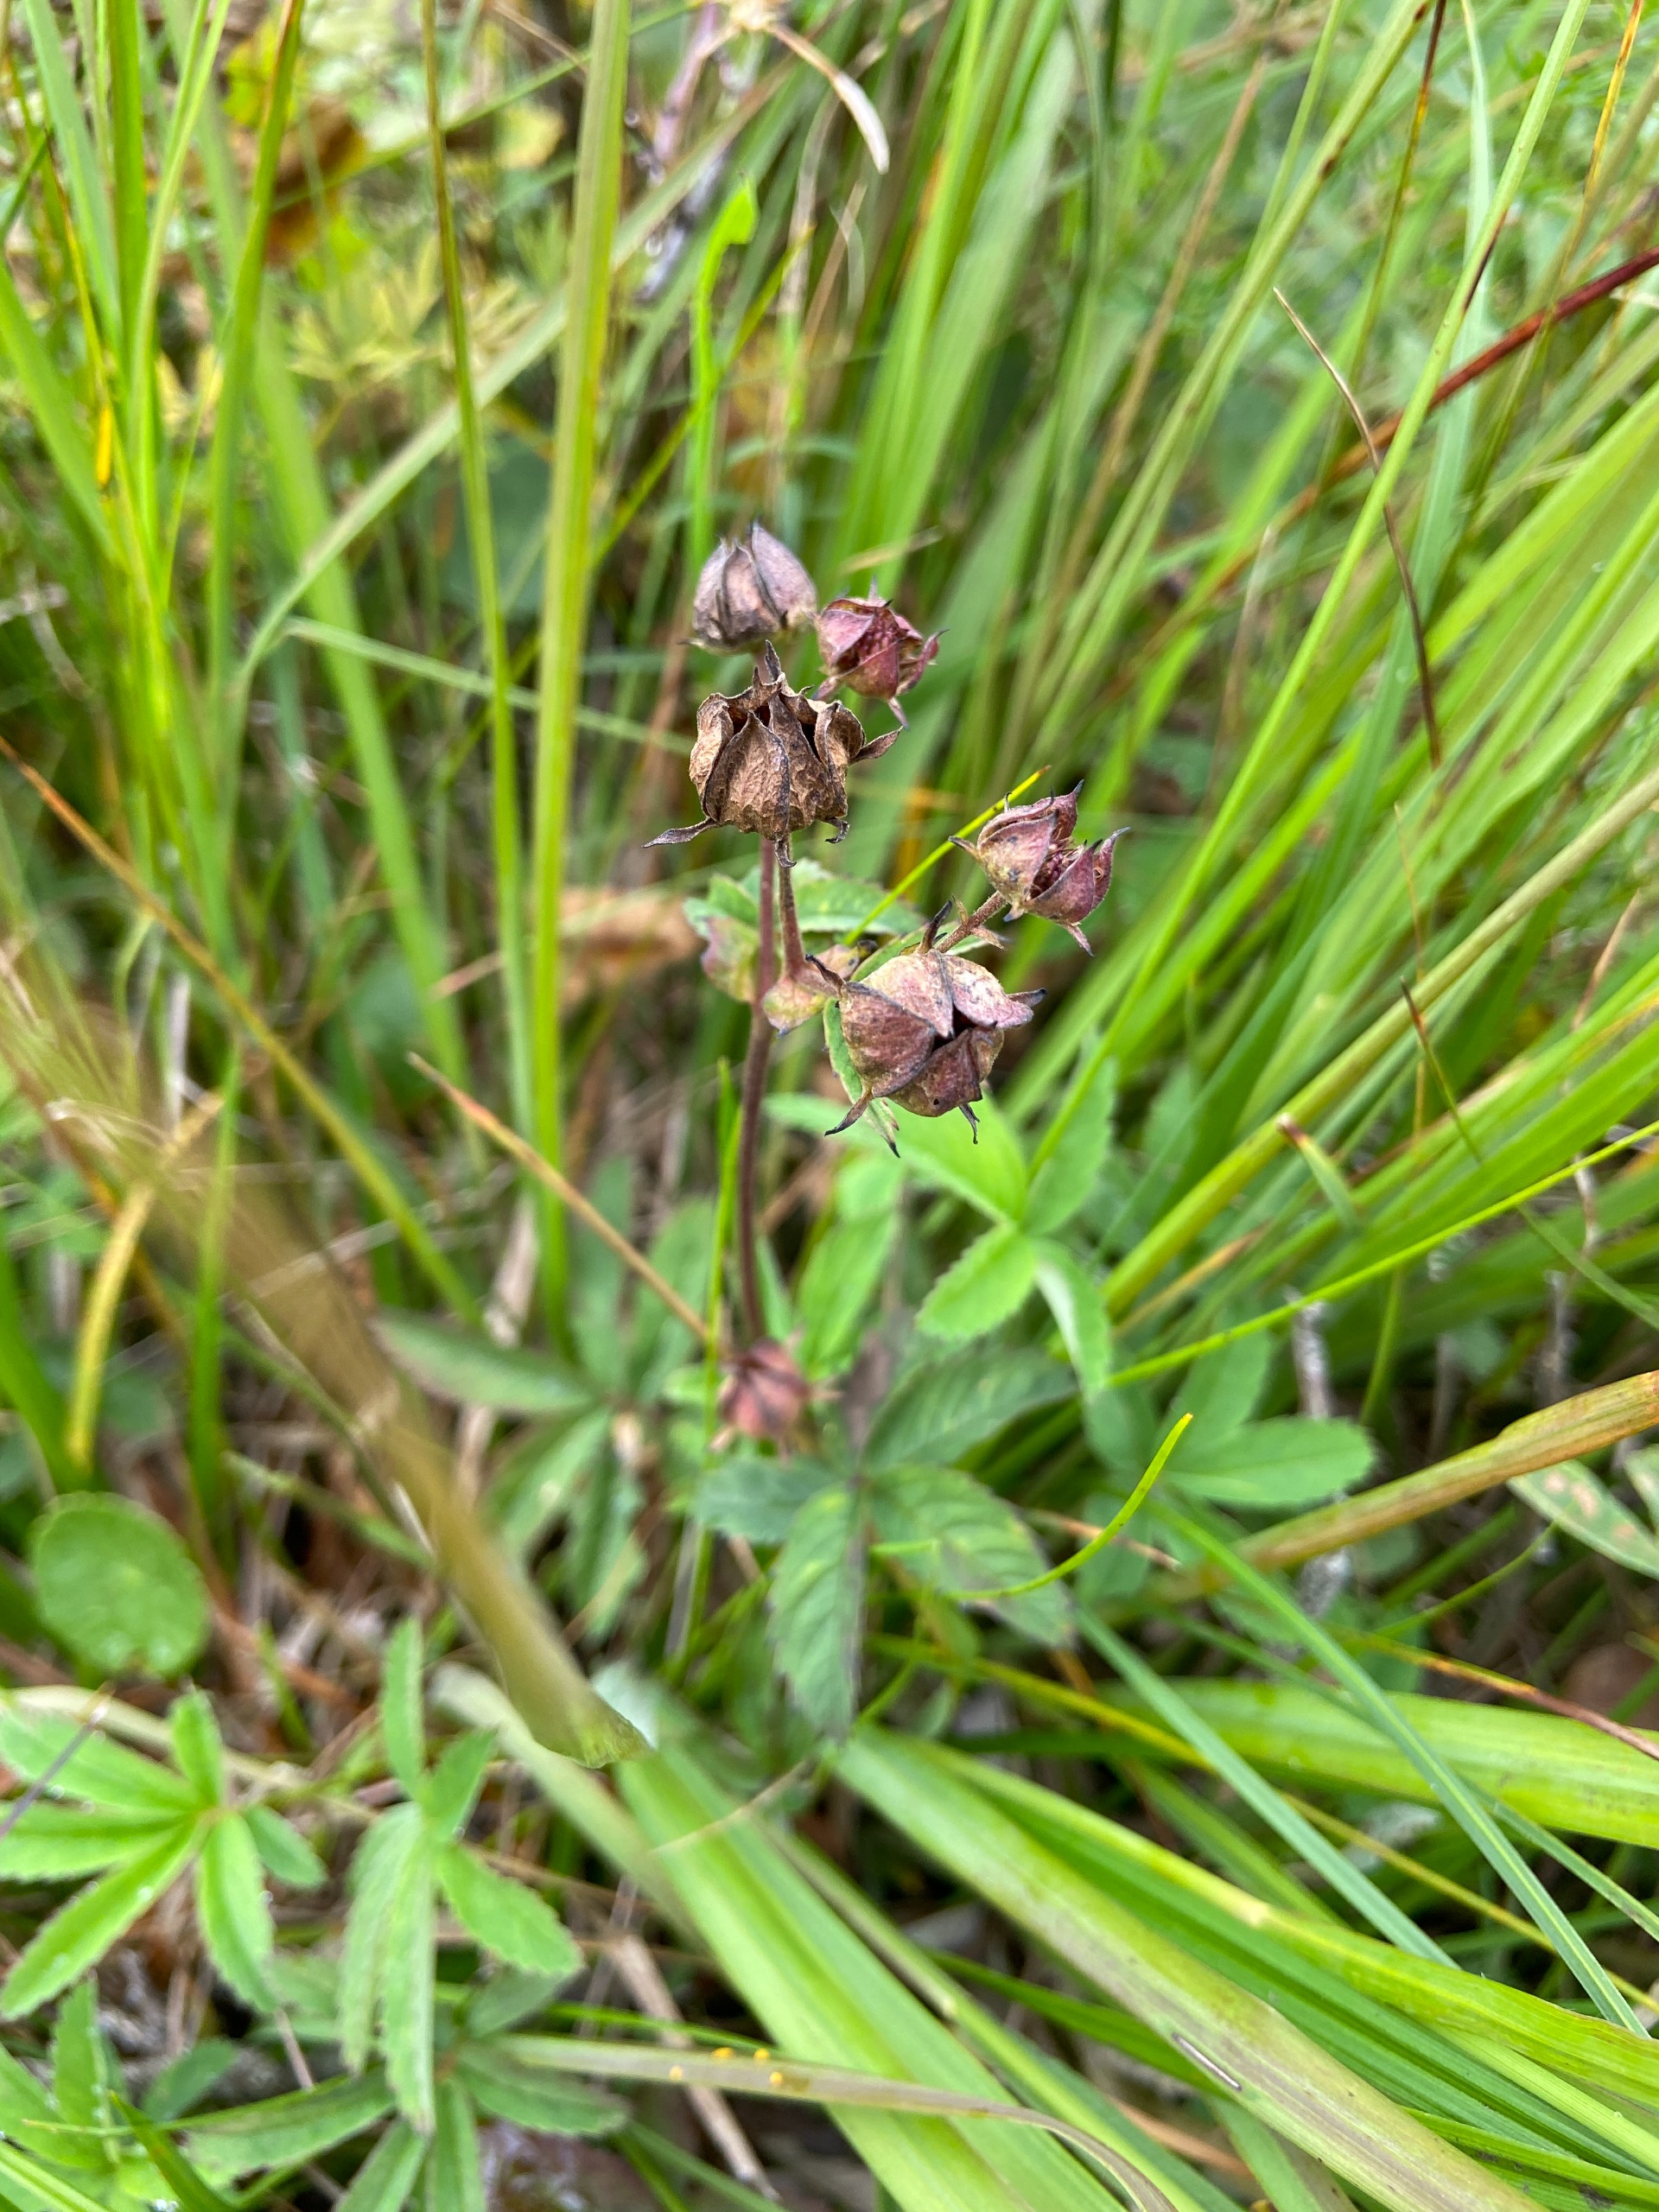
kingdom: Plantae
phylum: Tracheophyta
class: Magnoliopsida
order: Rosales
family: Rosaceae
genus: Comarum
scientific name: Comarum palustre
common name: Kragefod
